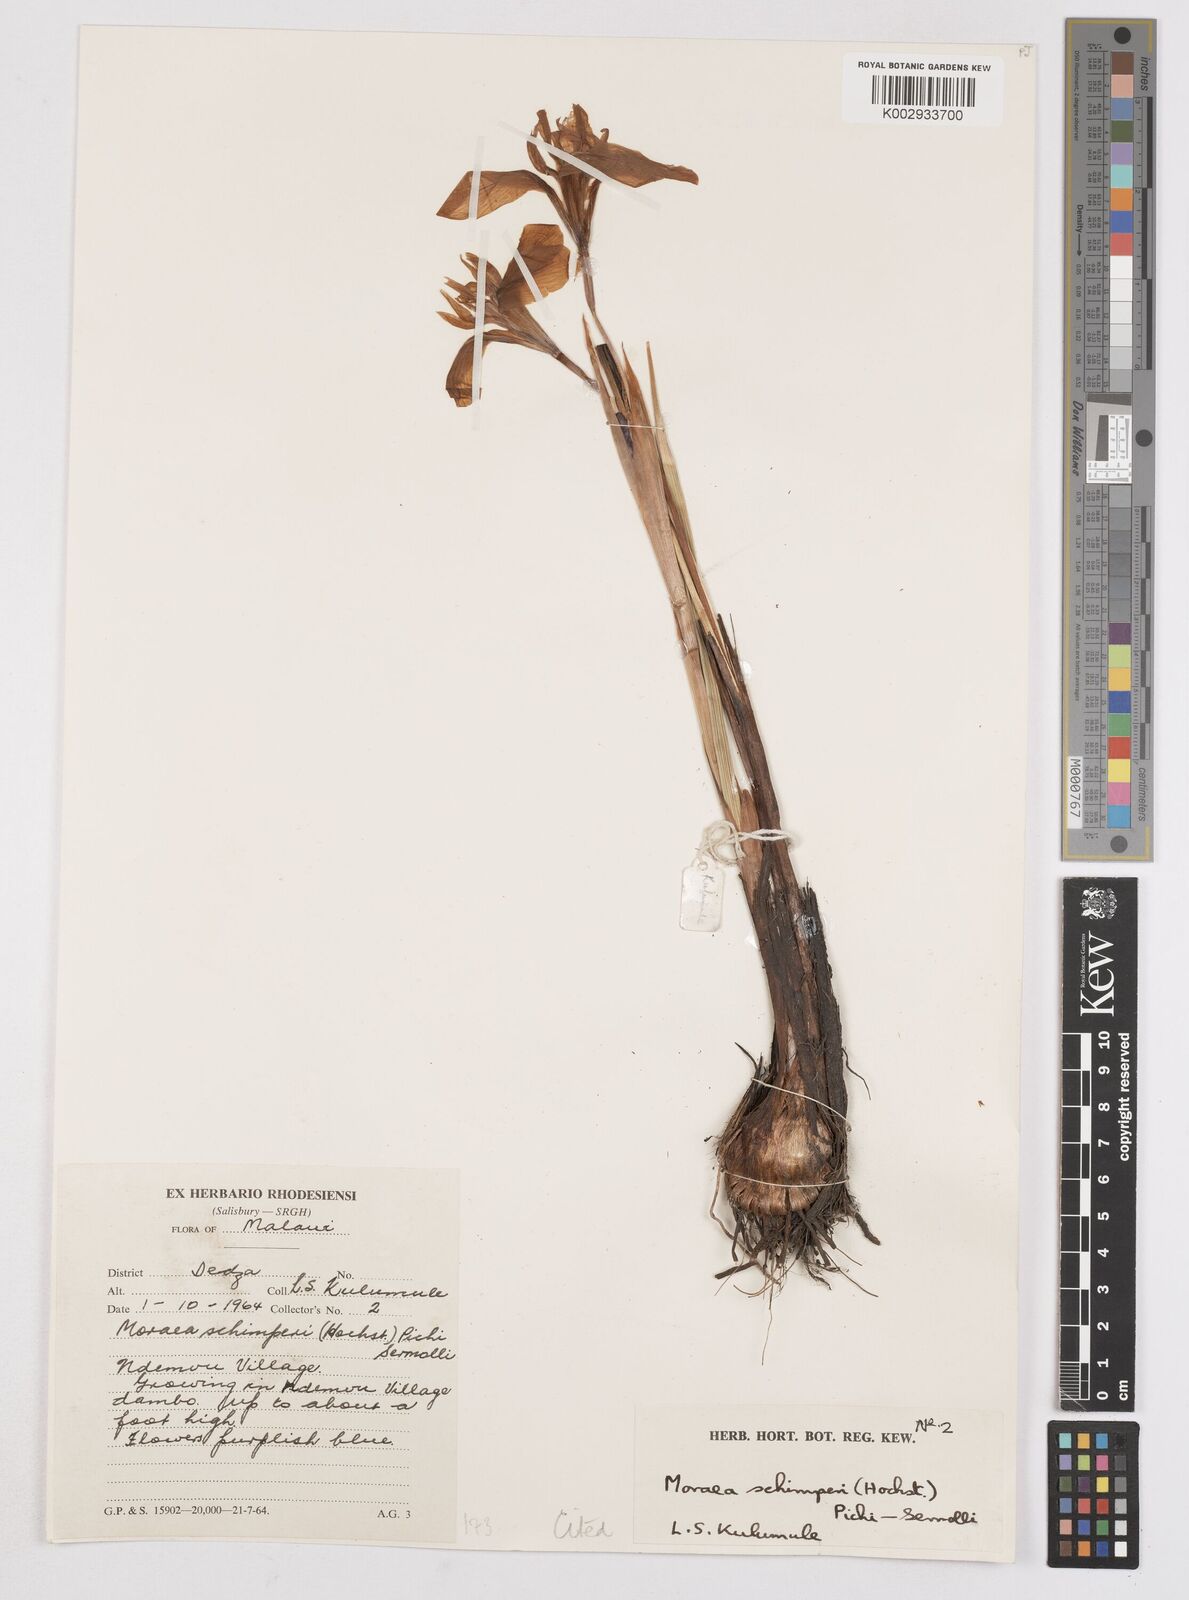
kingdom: Plantae
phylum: Tracheophyta
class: Liliopsida
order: Asparagales
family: Iridaceae
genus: Moraea
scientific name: Moraea schimperi
